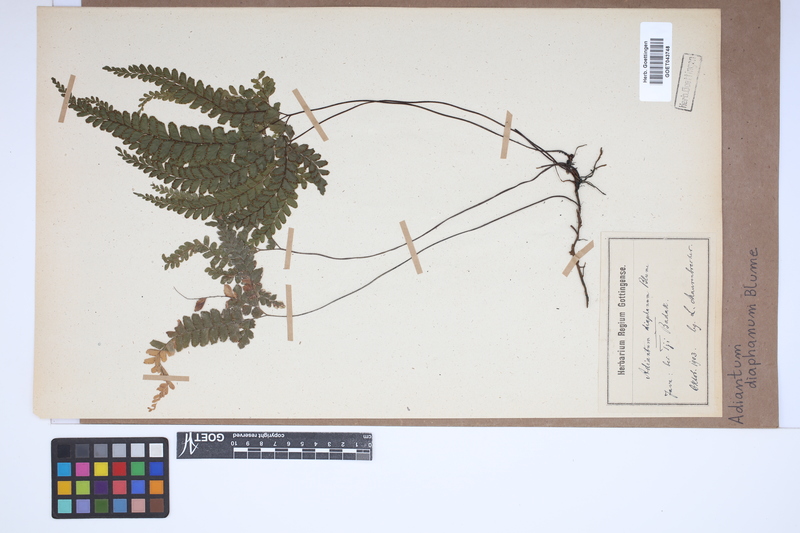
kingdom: Plantae
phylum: Tracheophyta
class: Polypodiopsida
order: Polypodiales
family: Pteridaceae
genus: Adiantum
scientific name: Adiantum diaphanum
